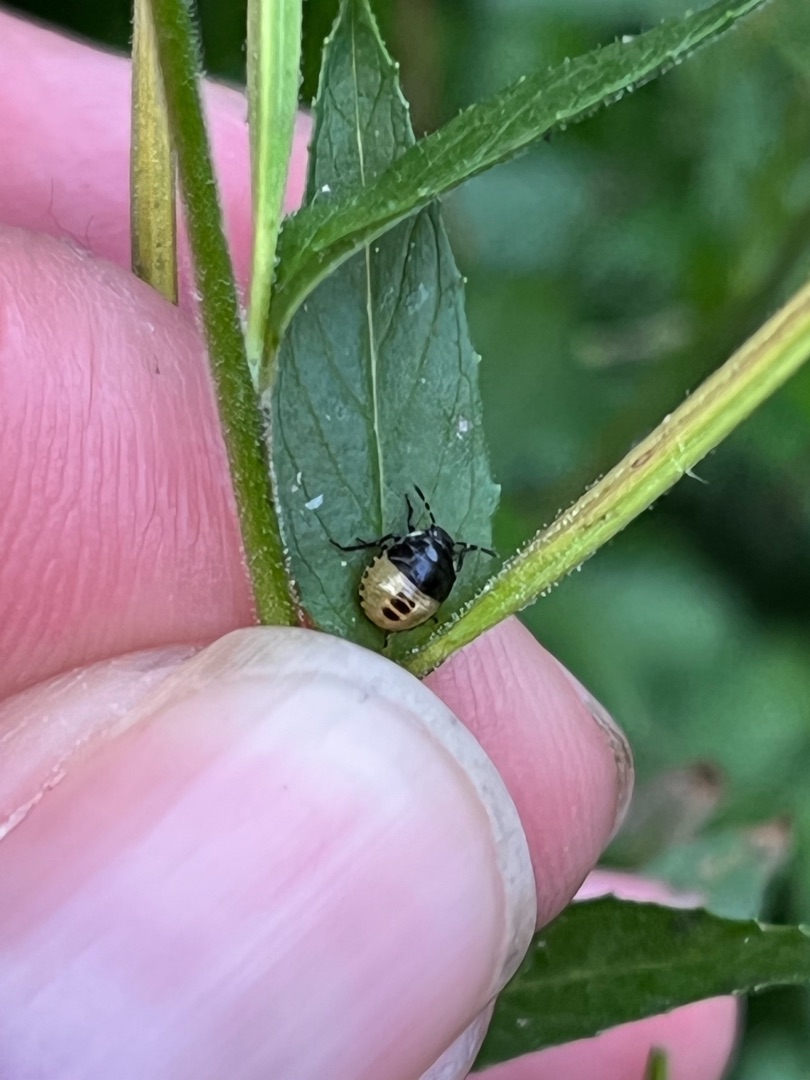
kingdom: Animalia
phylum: Arthropoda
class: Insecta
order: Hemiptera
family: Pentatomidae
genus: Palomena
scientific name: Palomena prasina
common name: Grøn bredtæge
